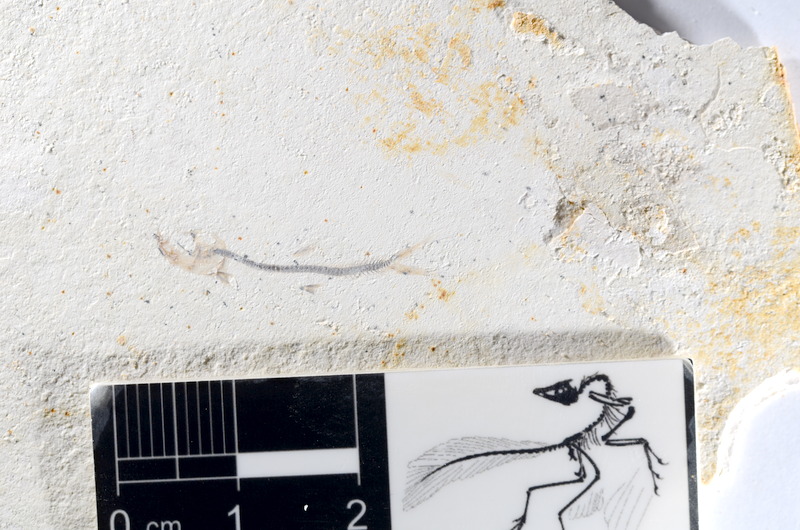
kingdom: Animalia
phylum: Chordata
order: Salmoniformes
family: Orthogonikleithridae
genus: Orthogonikleithrus
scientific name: Orthogonikleithrus hoelli
